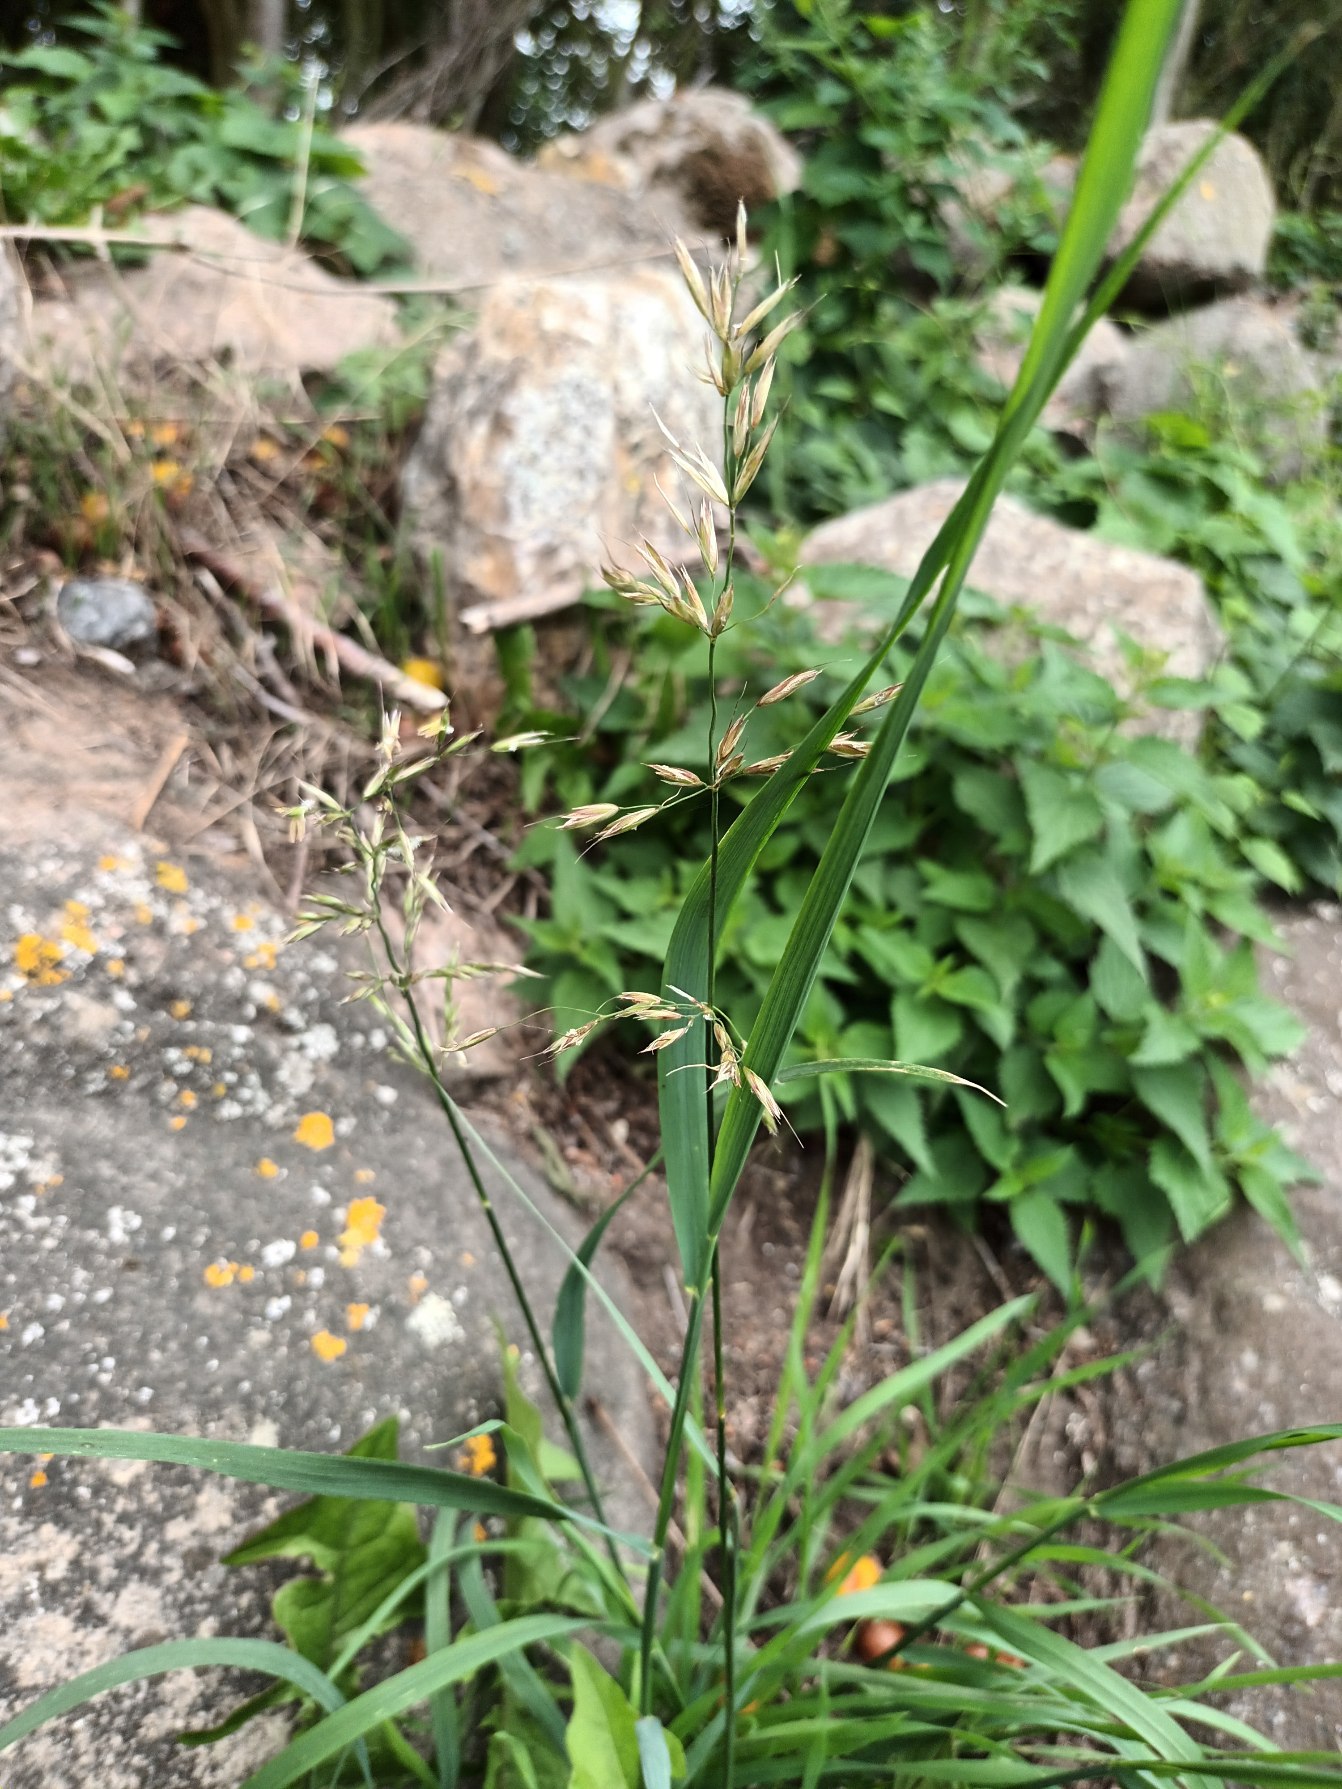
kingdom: Plantae
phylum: Tracheophyta
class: Liliopsida
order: Poales
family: Poaceae
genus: Arrhenatherum
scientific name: Arrhenatherum elatius
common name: Draphavre
